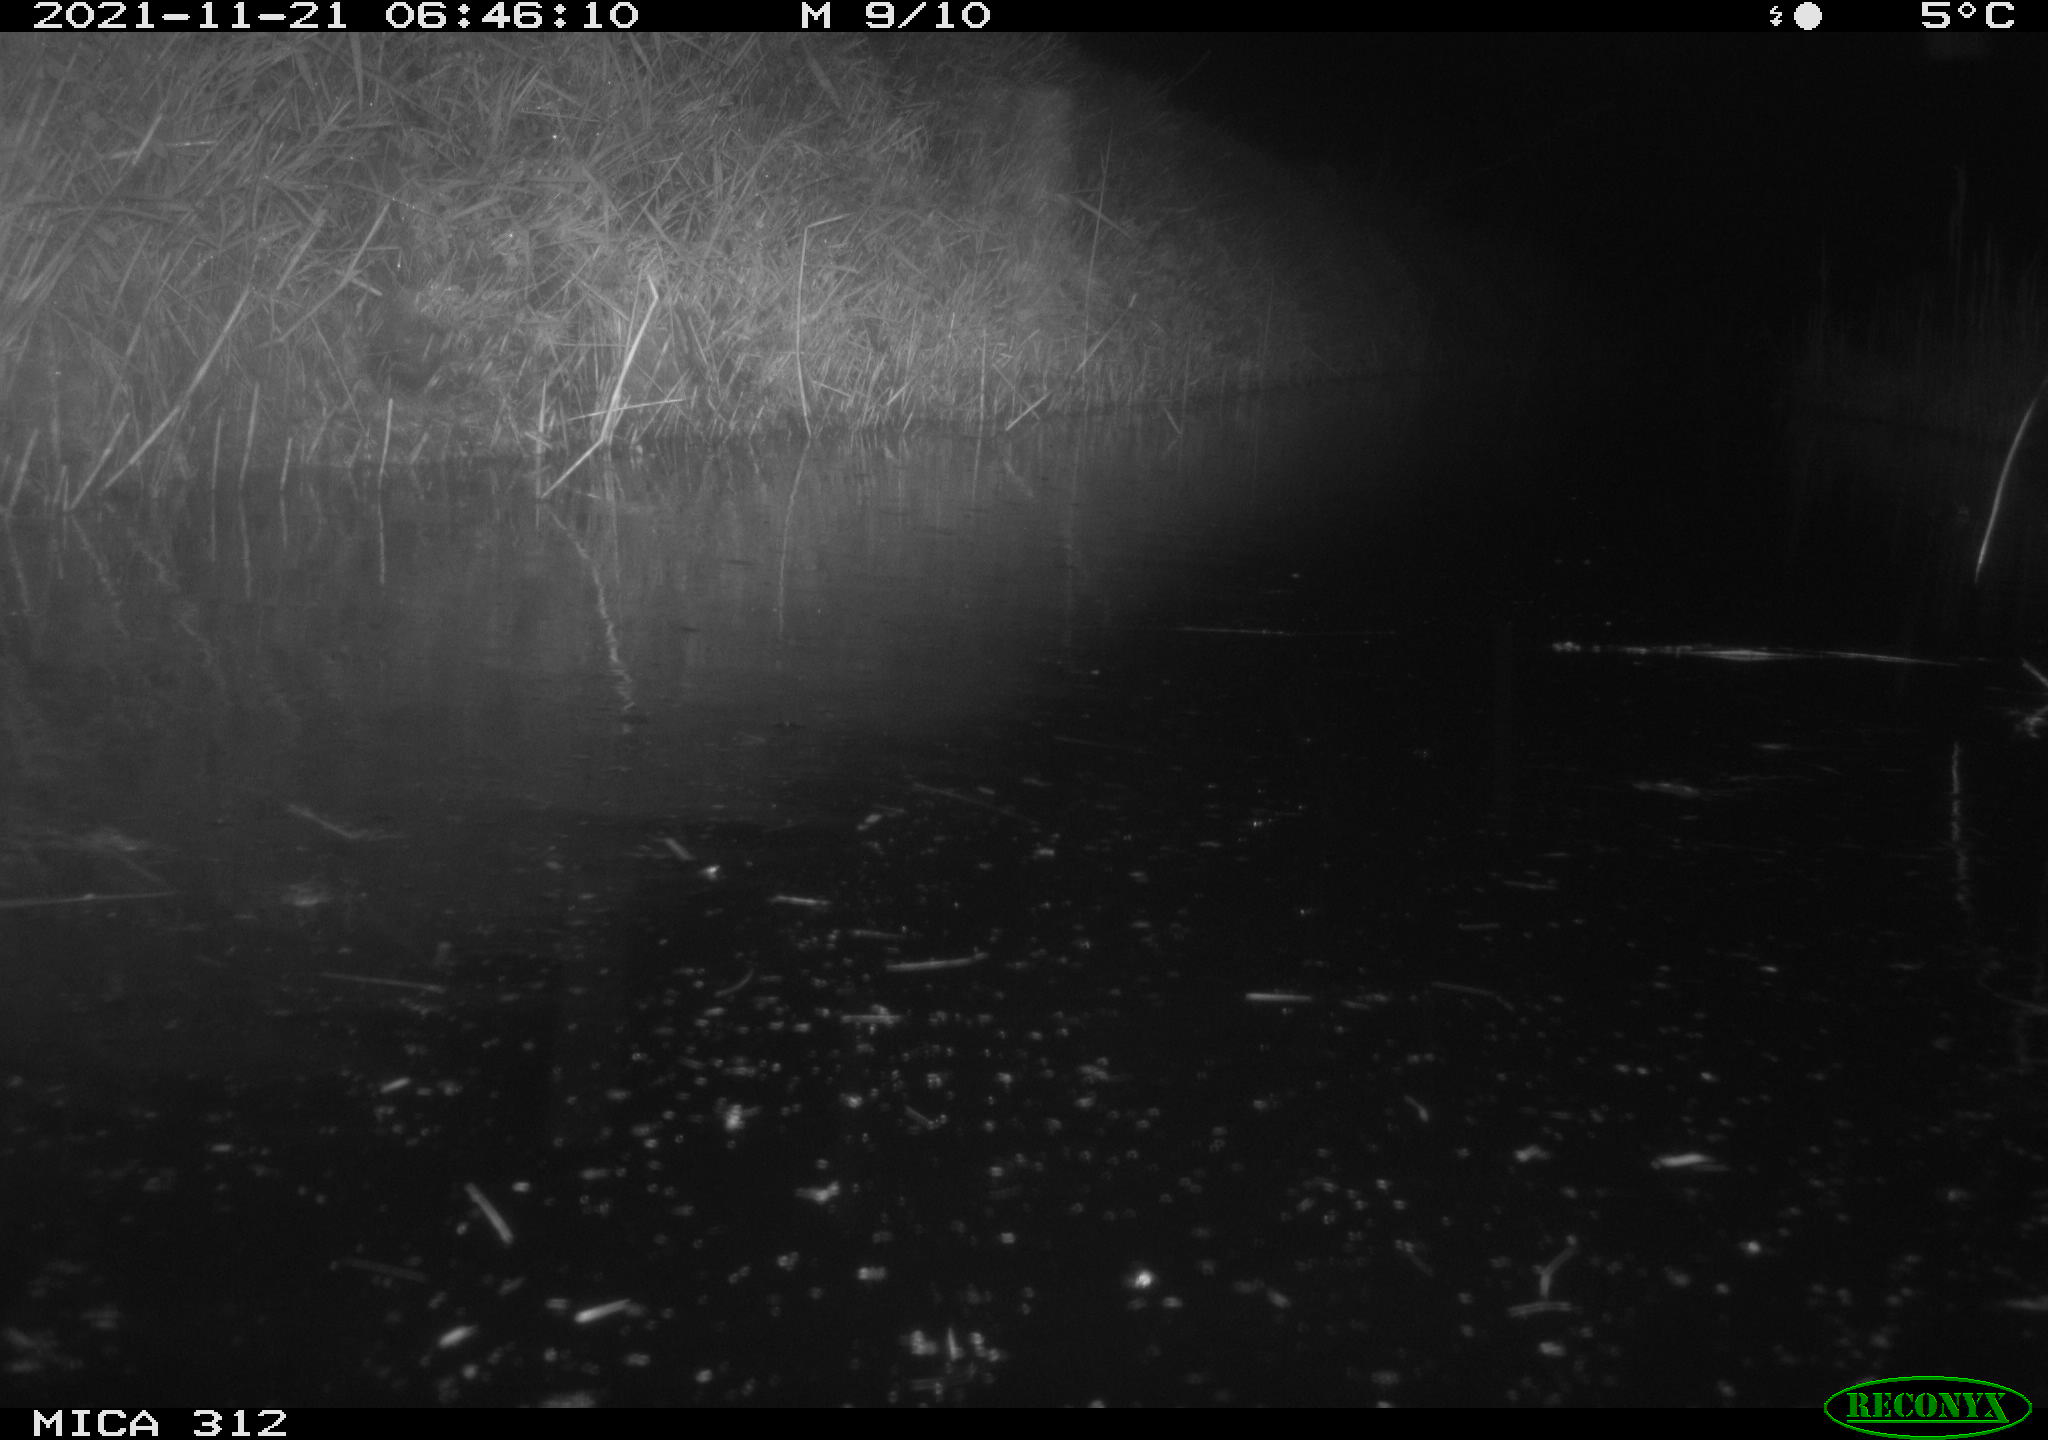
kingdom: Animalia
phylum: Chordata
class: Mammalia
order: Rodentia
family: Muridae
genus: Rattus
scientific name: Rattus norvegicus
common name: Brown rat
